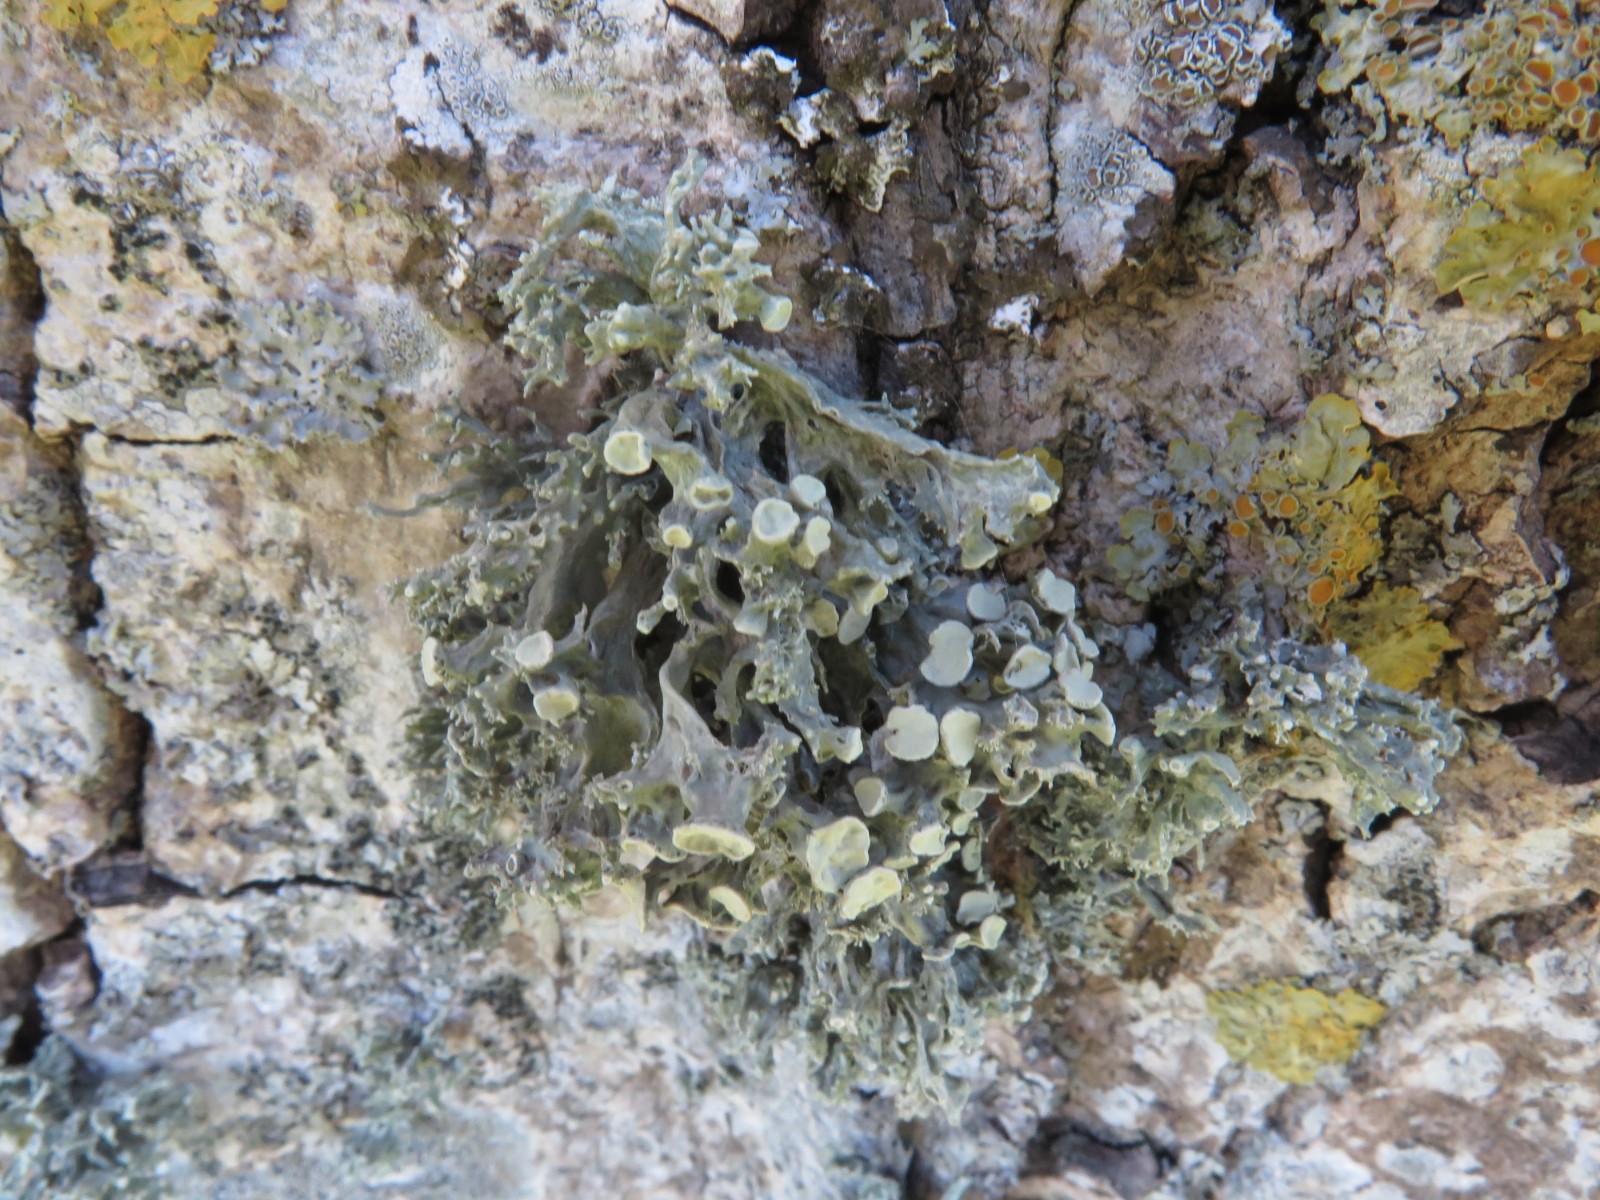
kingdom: Fungi
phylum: Ascomycota
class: Lecanoromycetes
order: Lecanorales
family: Ramalinaceae
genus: Ramalina
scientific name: Ramalina fastigiata
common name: tue-grenlav
